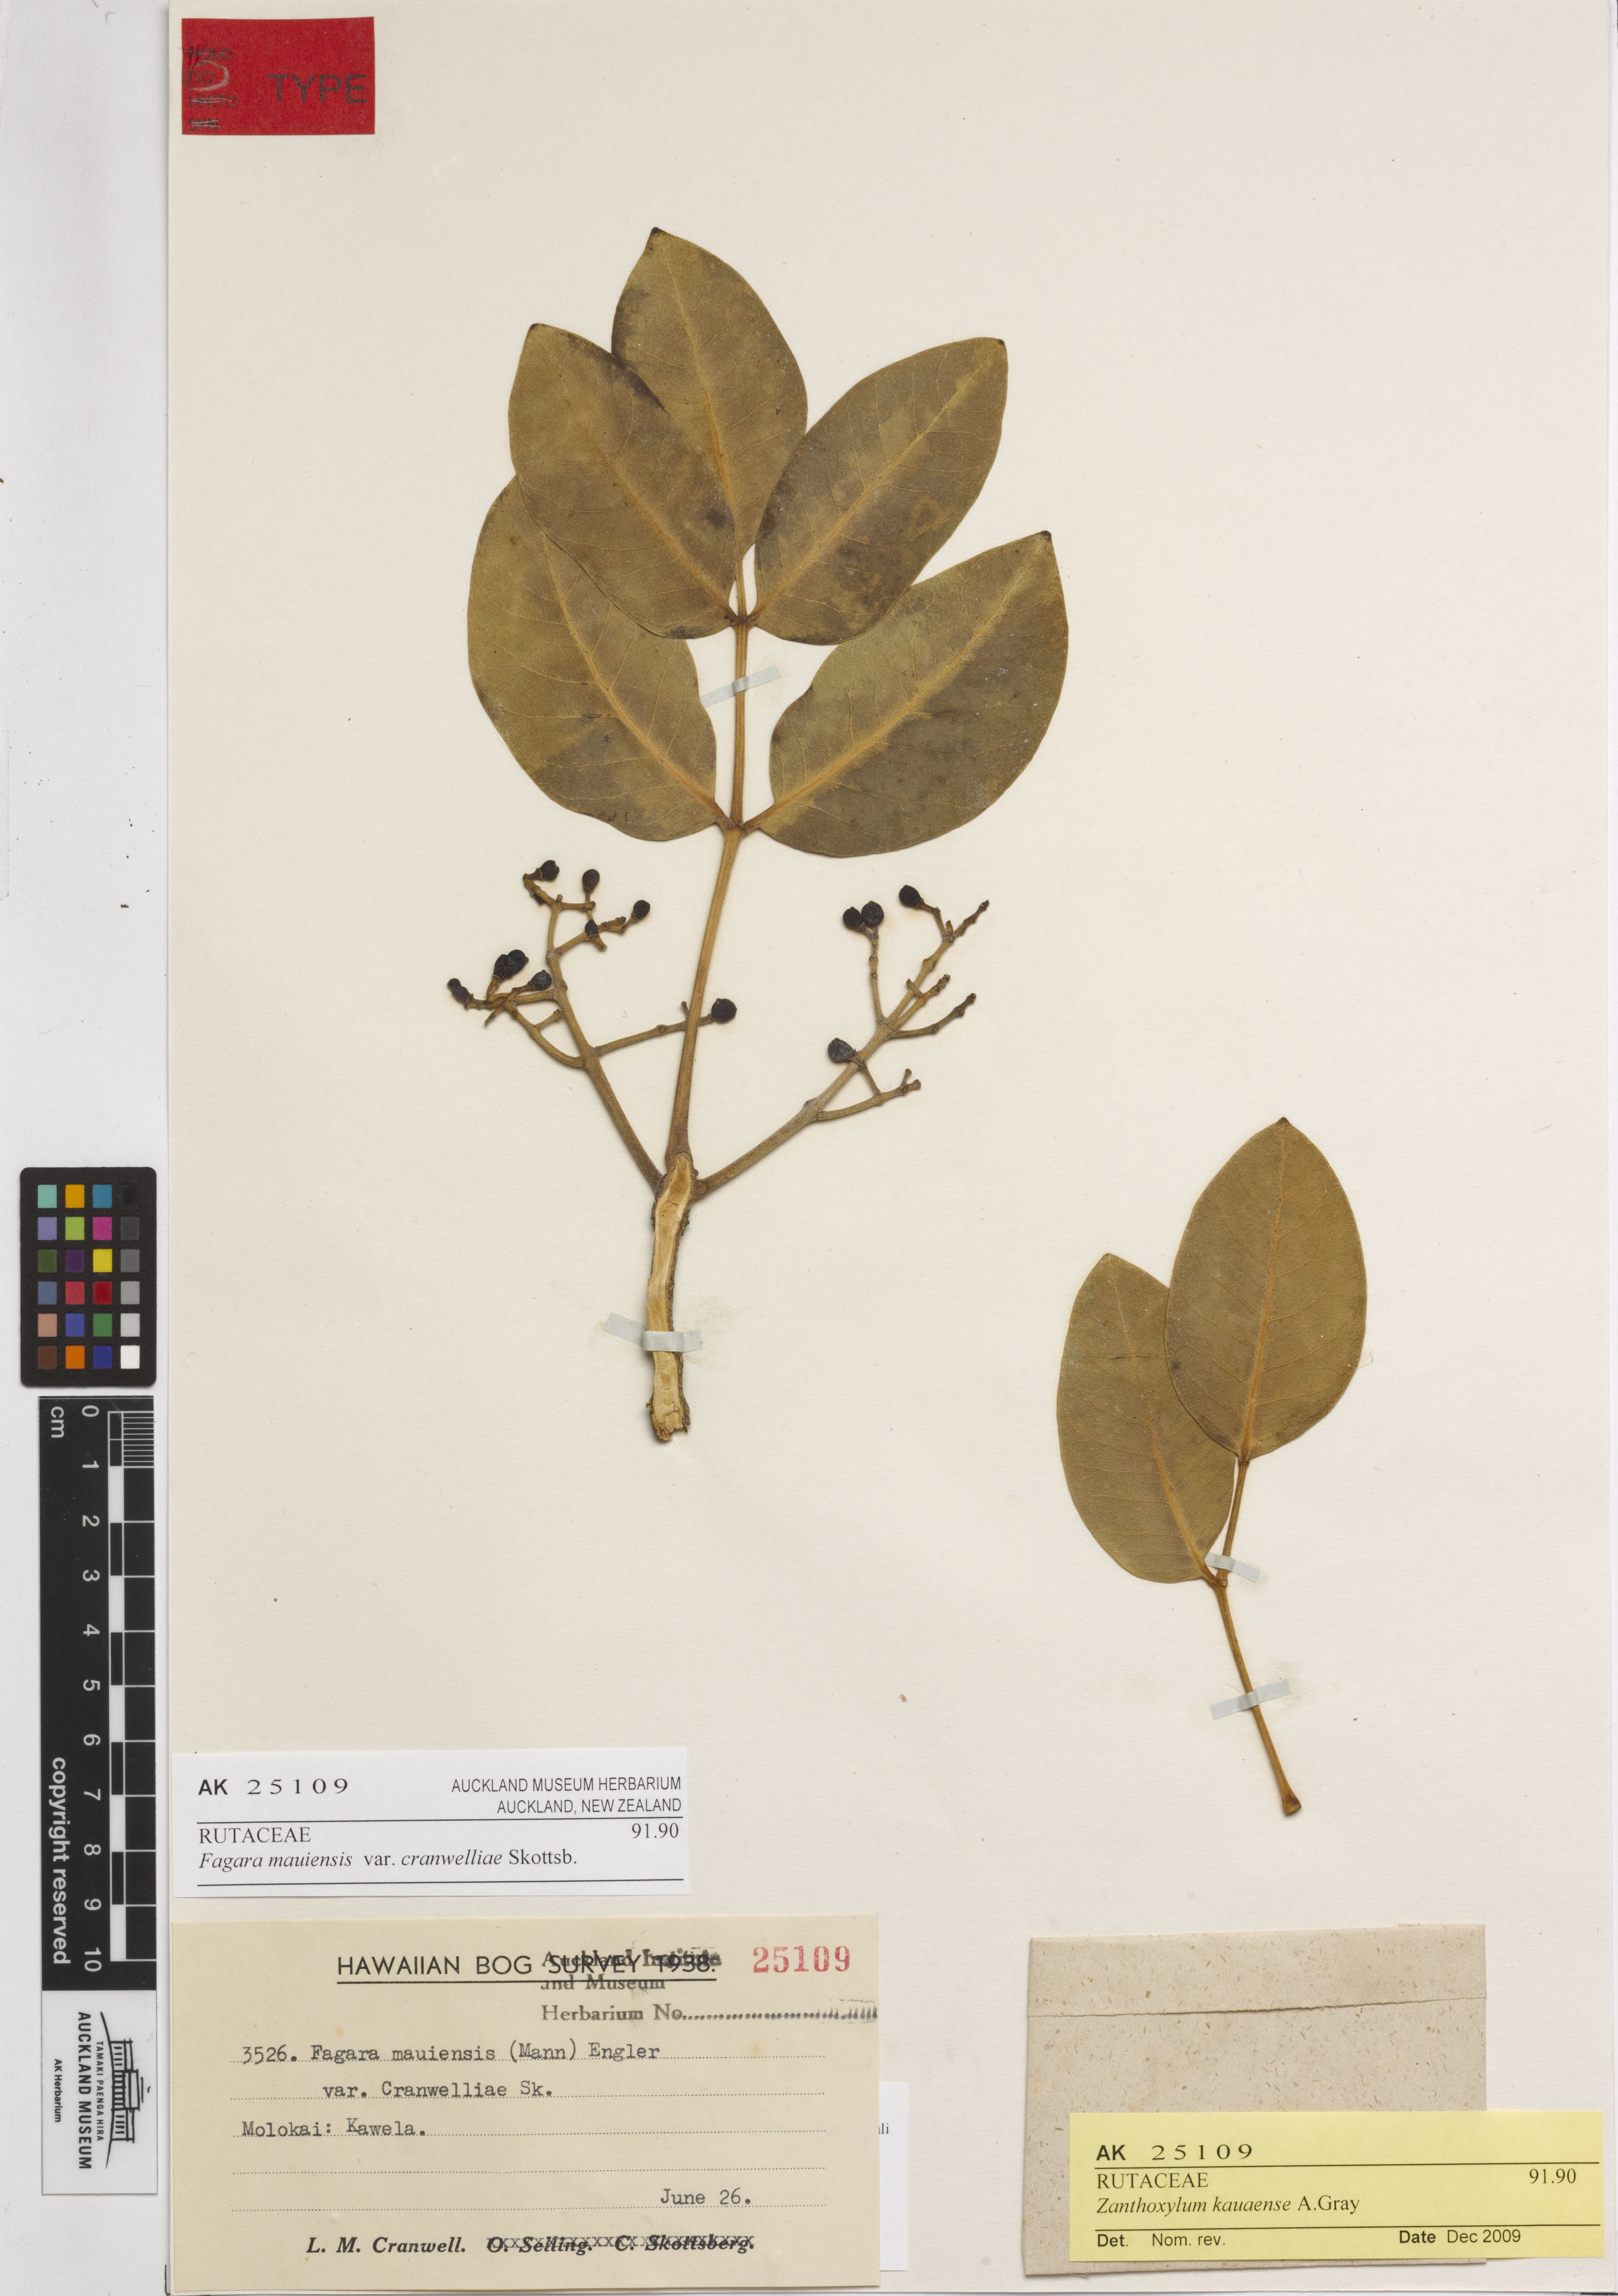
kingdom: Plantae
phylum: Tracheophyta
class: Magnoliopsida
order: Sapindales
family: Rutaceae
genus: Zanthoxylum
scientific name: Zanthoxylum kauaense
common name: Kauai prickly-ash
